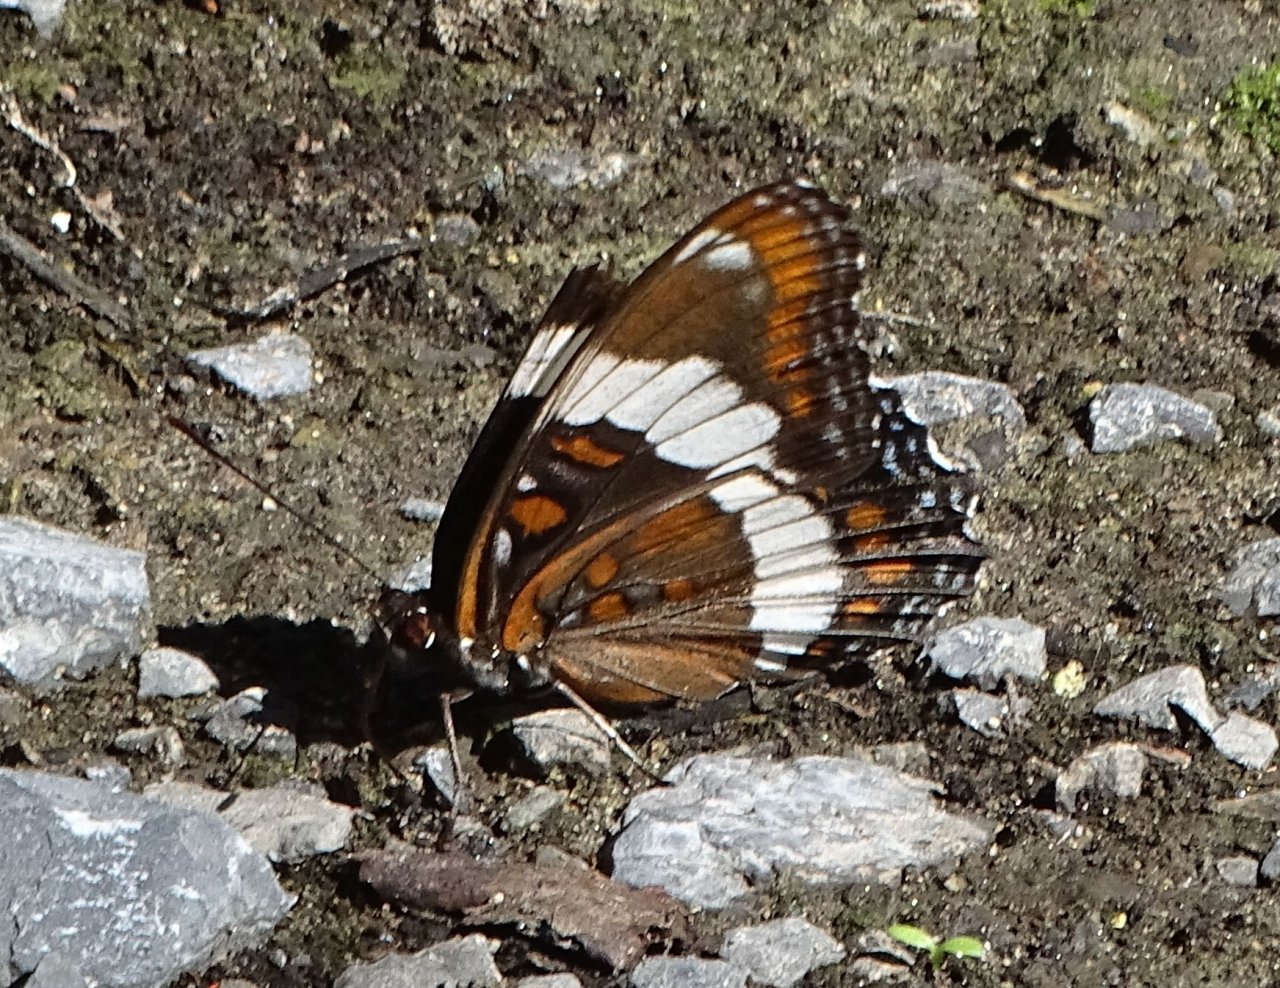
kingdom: Animalia
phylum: Arthropoda
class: Insecta
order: Lepidoptera
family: Nymphalidae
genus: Limenitis
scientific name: Limenitis arthemis
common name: Red-spotted Admiral
